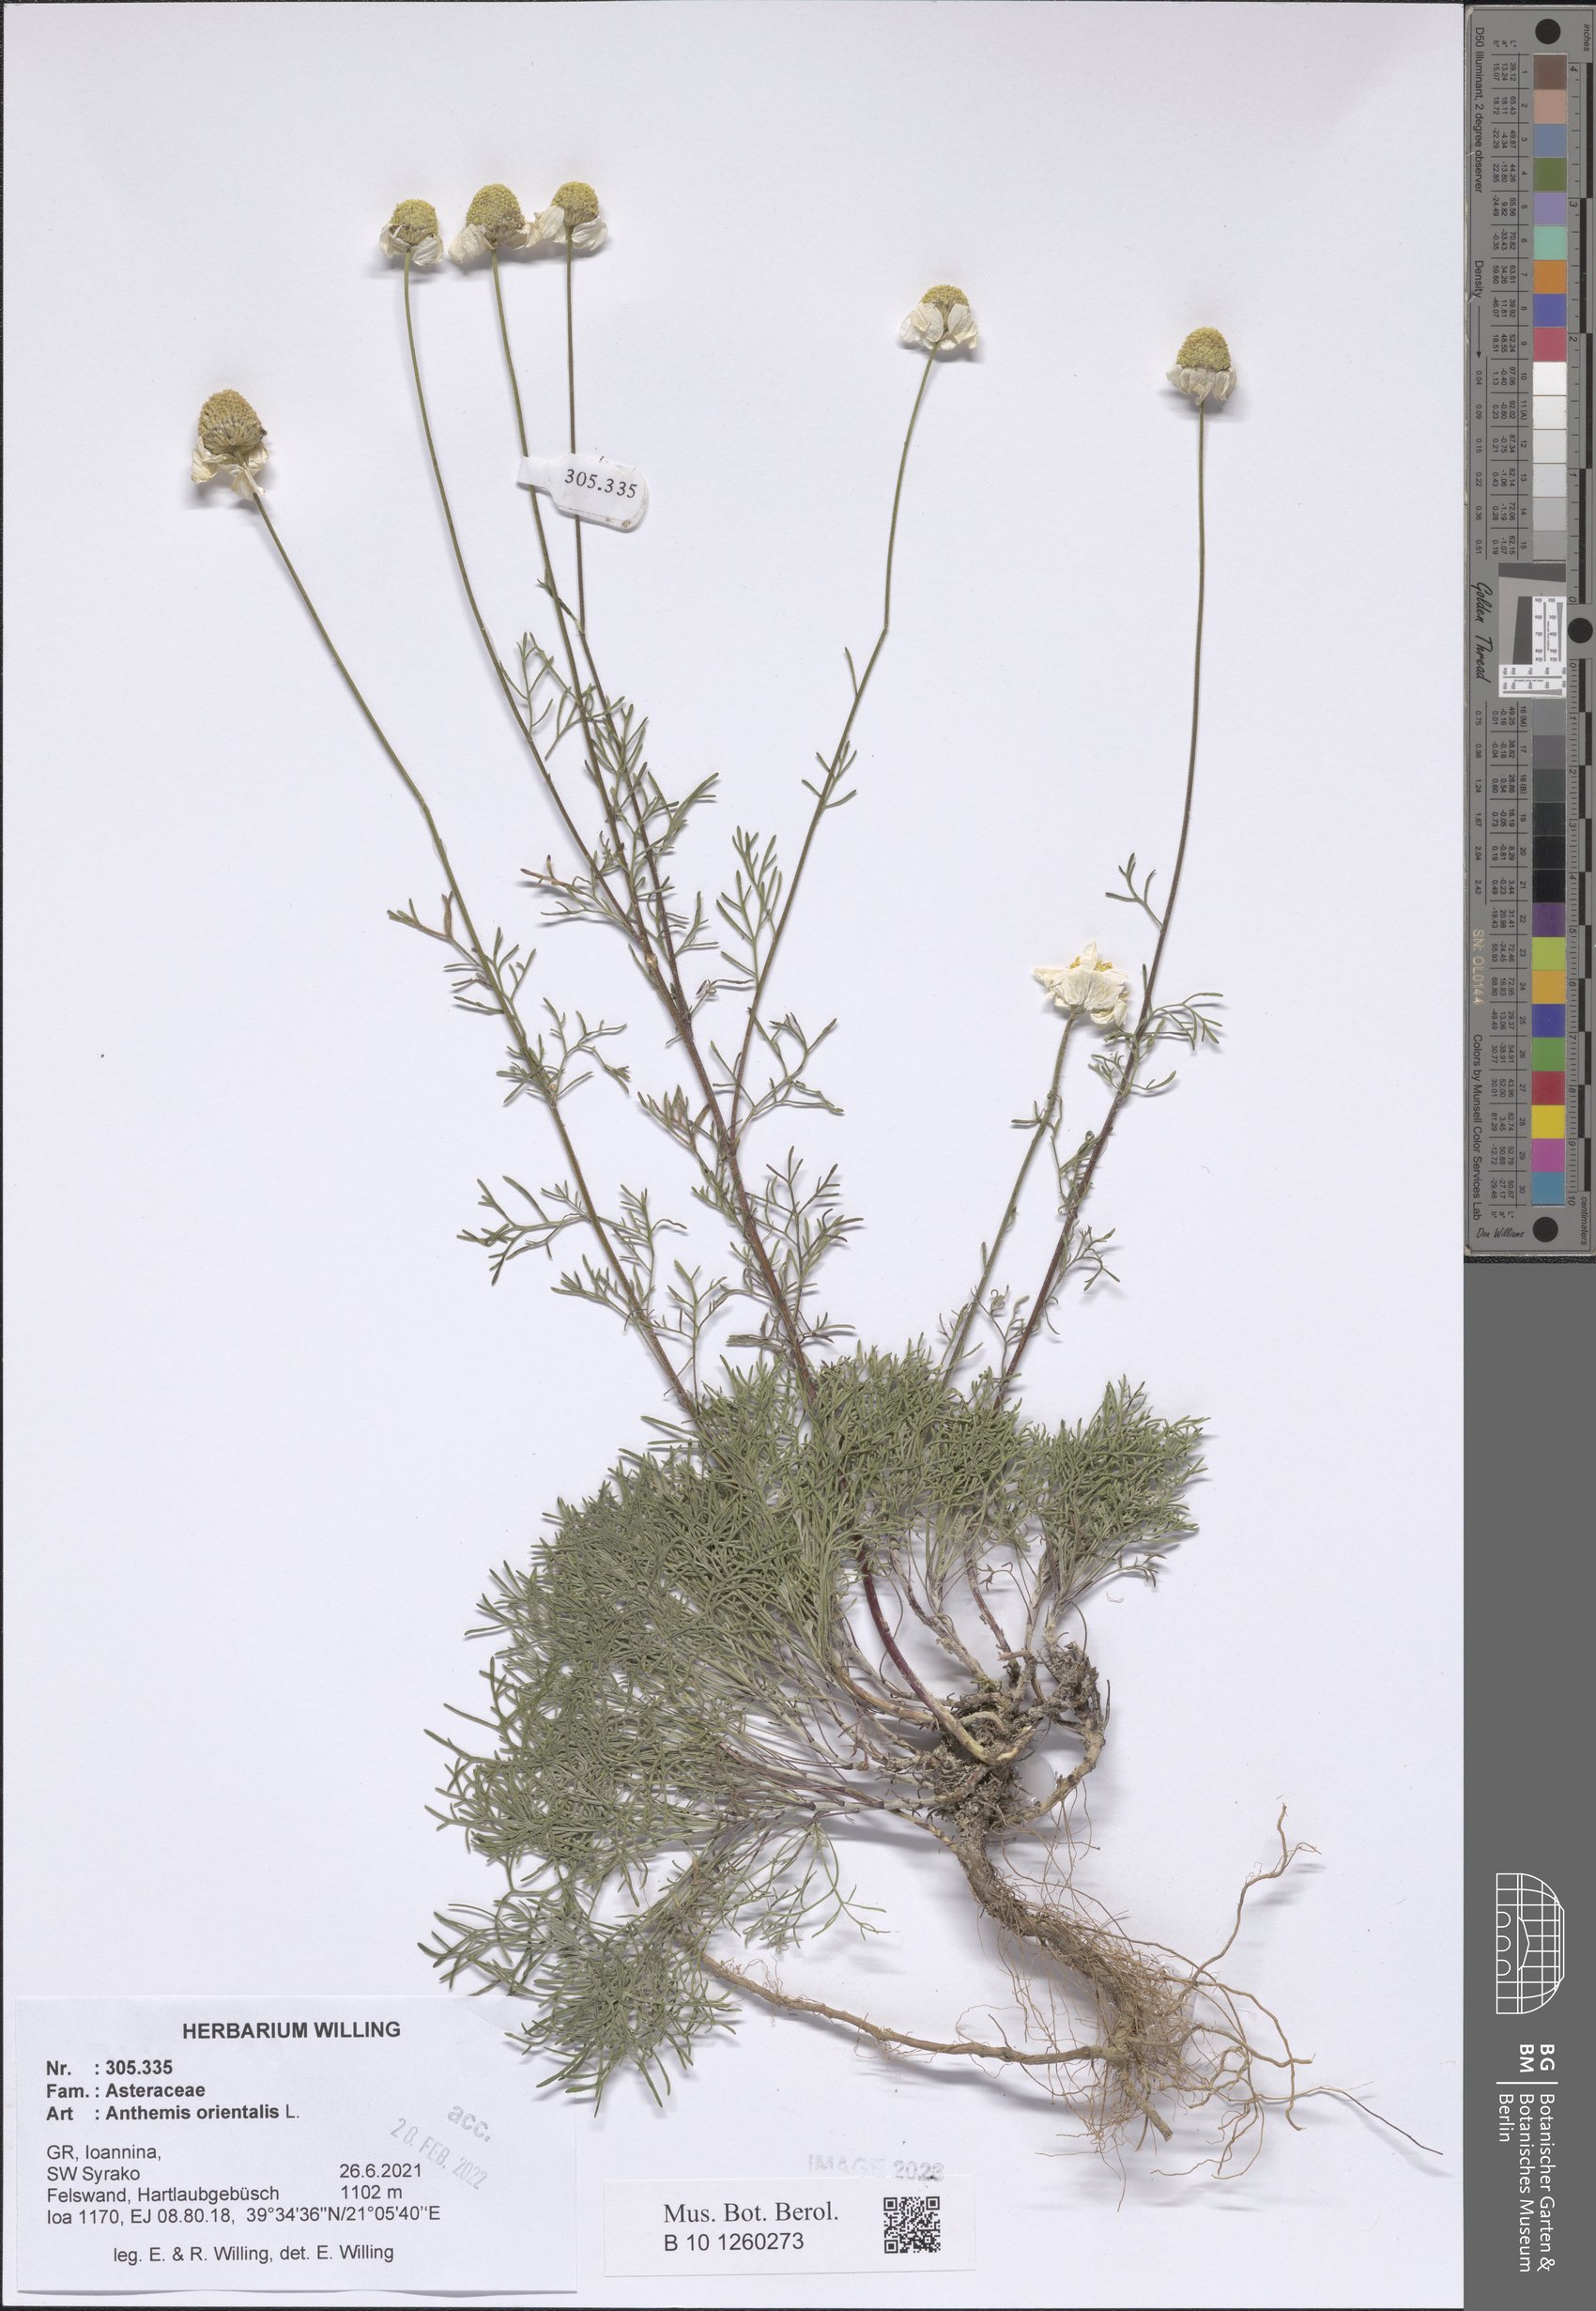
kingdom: Plantae
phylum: Tracheophyta
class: Magnoliopsida
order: Asterales
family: Asteraceae
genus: Anthemis
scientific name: Anthemis orientalis
